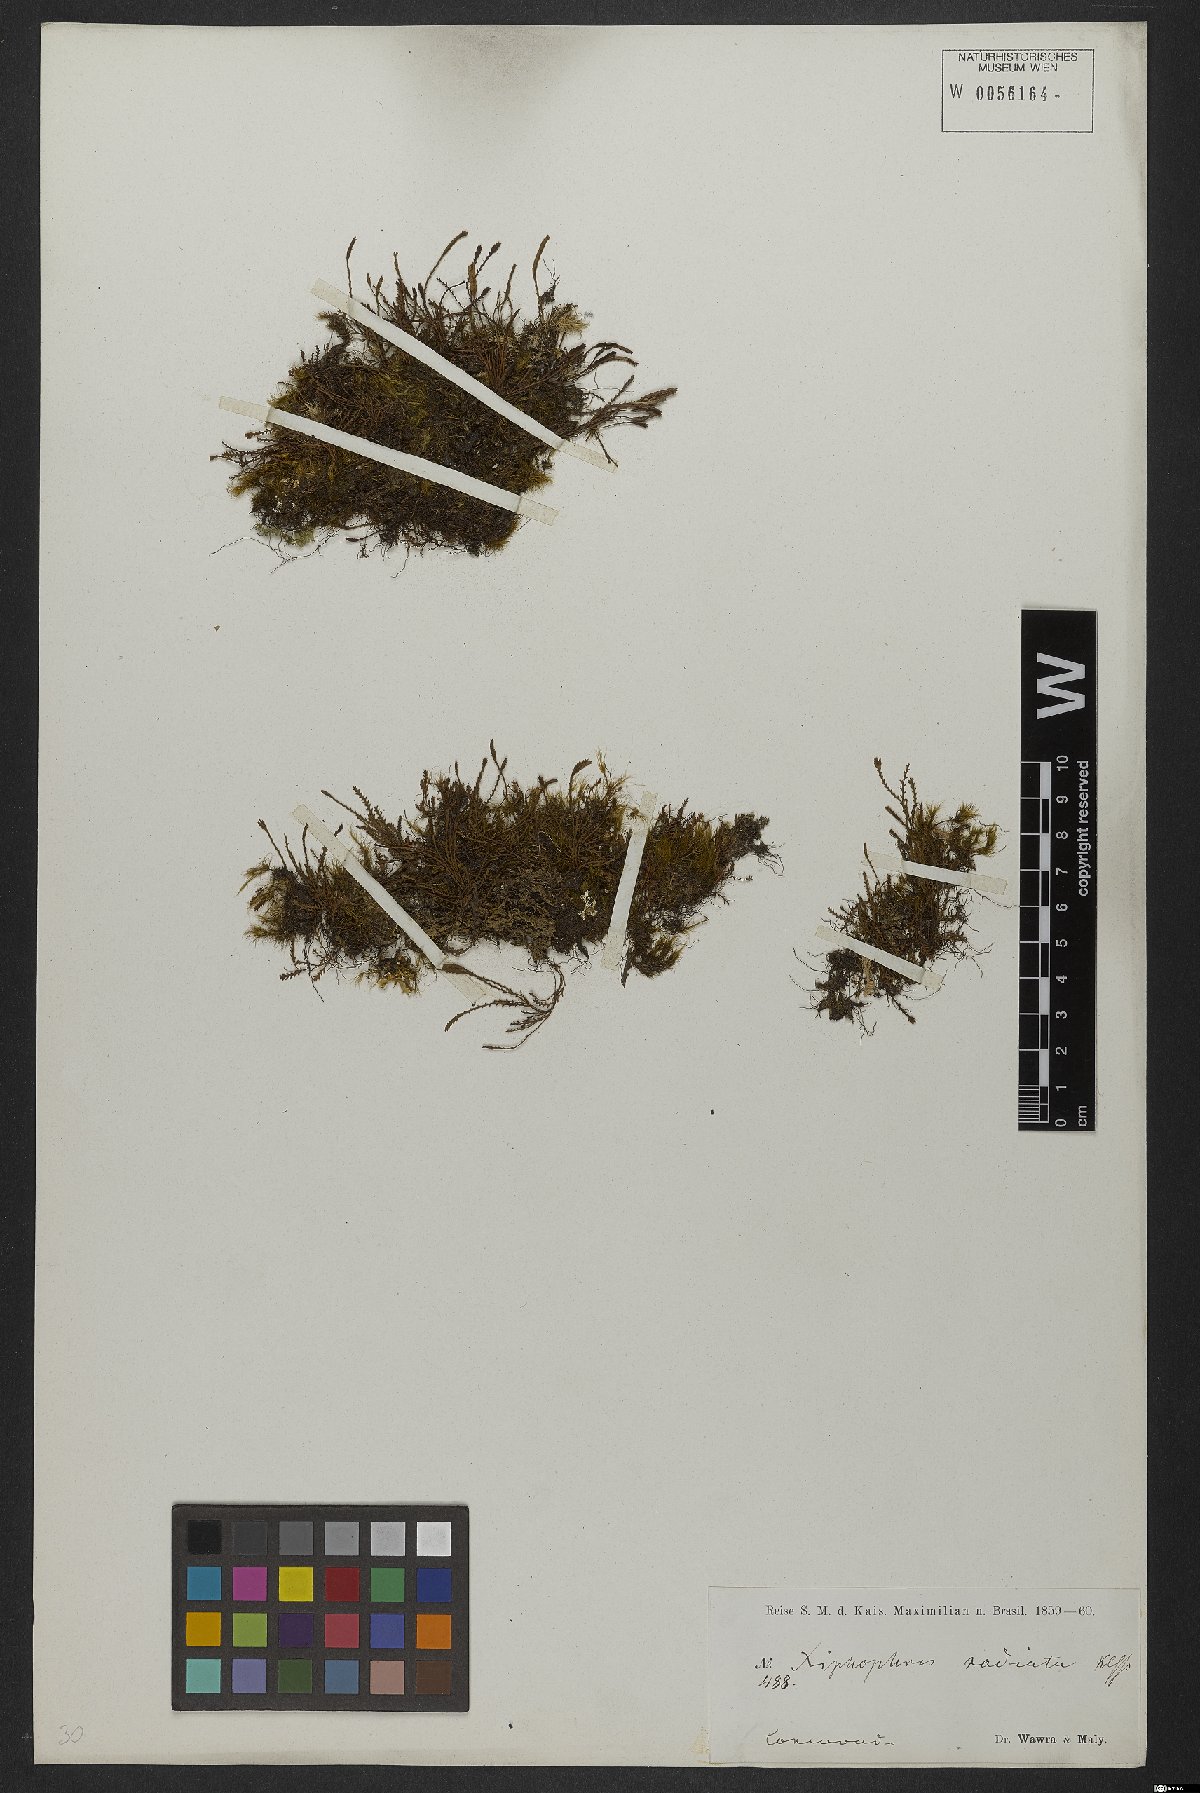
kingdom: Plantae
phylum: Tracheophyta
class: Polypodiopsida
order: Polypodiales
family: Polypodiaceae
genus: Pleopeltis
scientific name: Pleopeltis monoides
